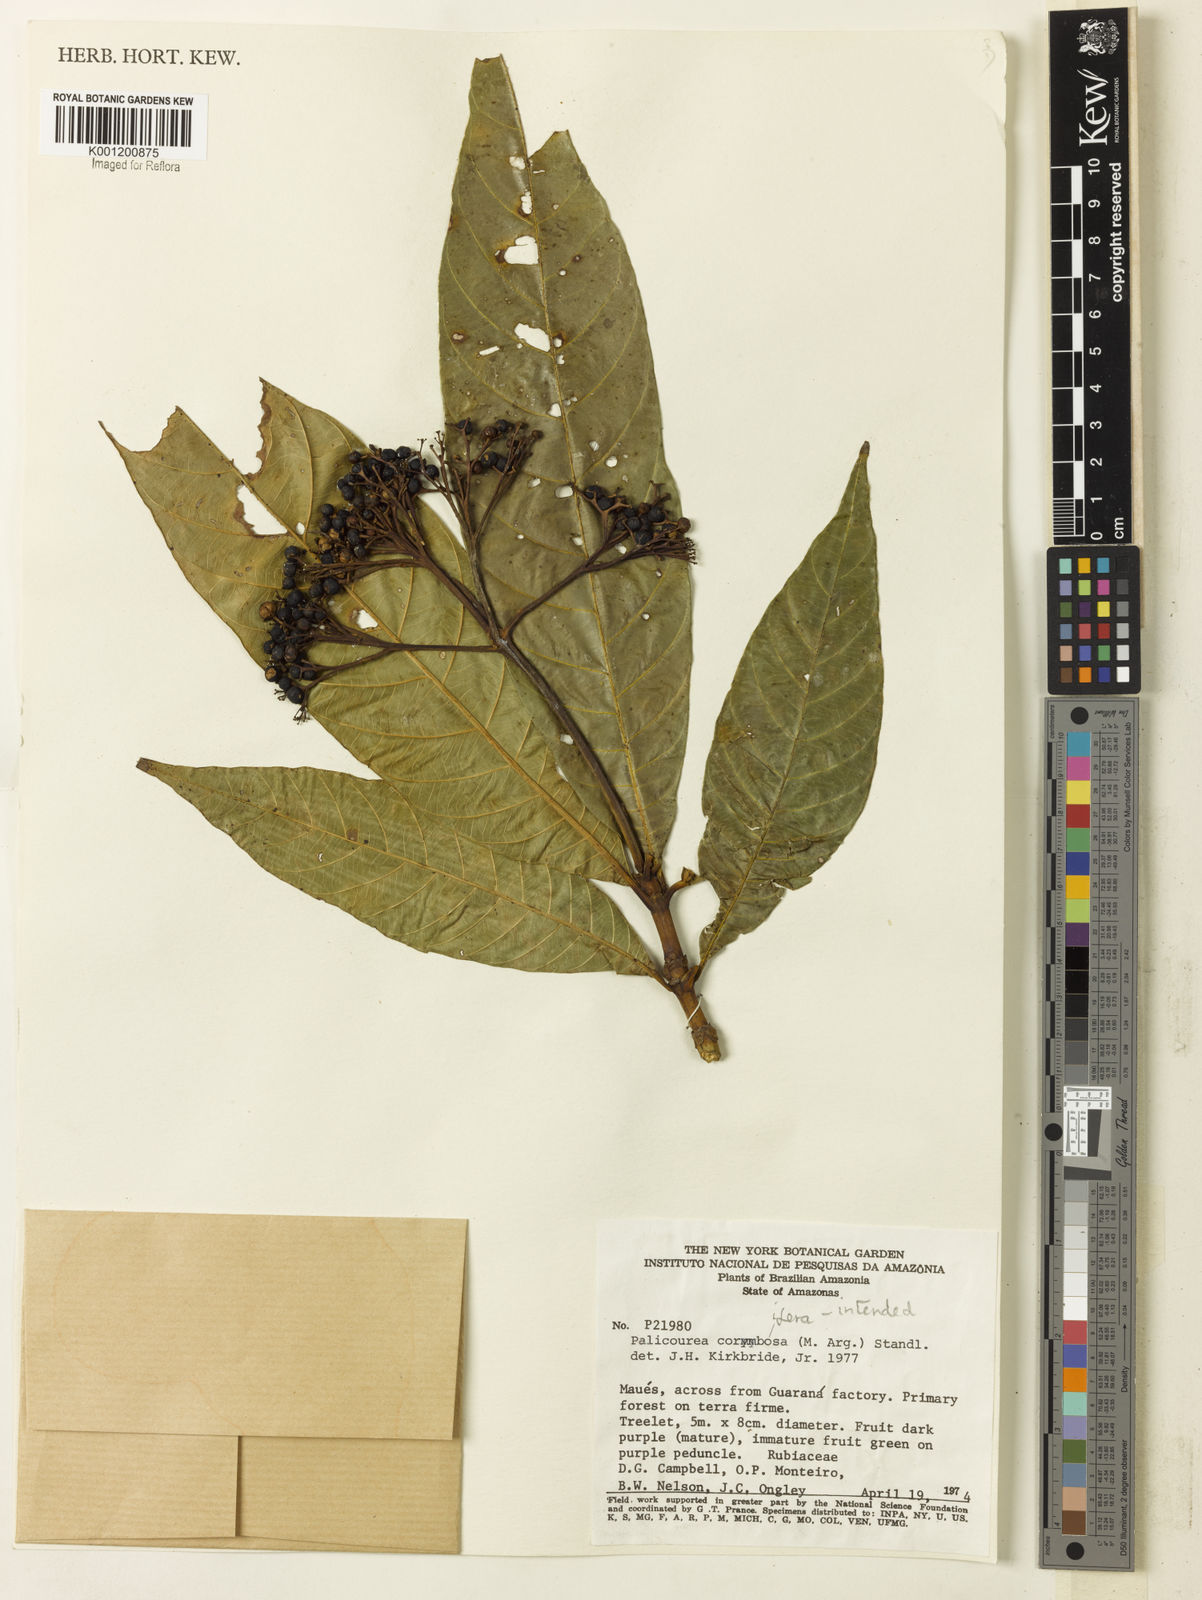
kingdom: Plantae
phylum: Tracheophyta
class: Magnoliopsida
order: Gentianales
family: Rubiaceae
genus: Palicourea
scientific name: Palicourea
